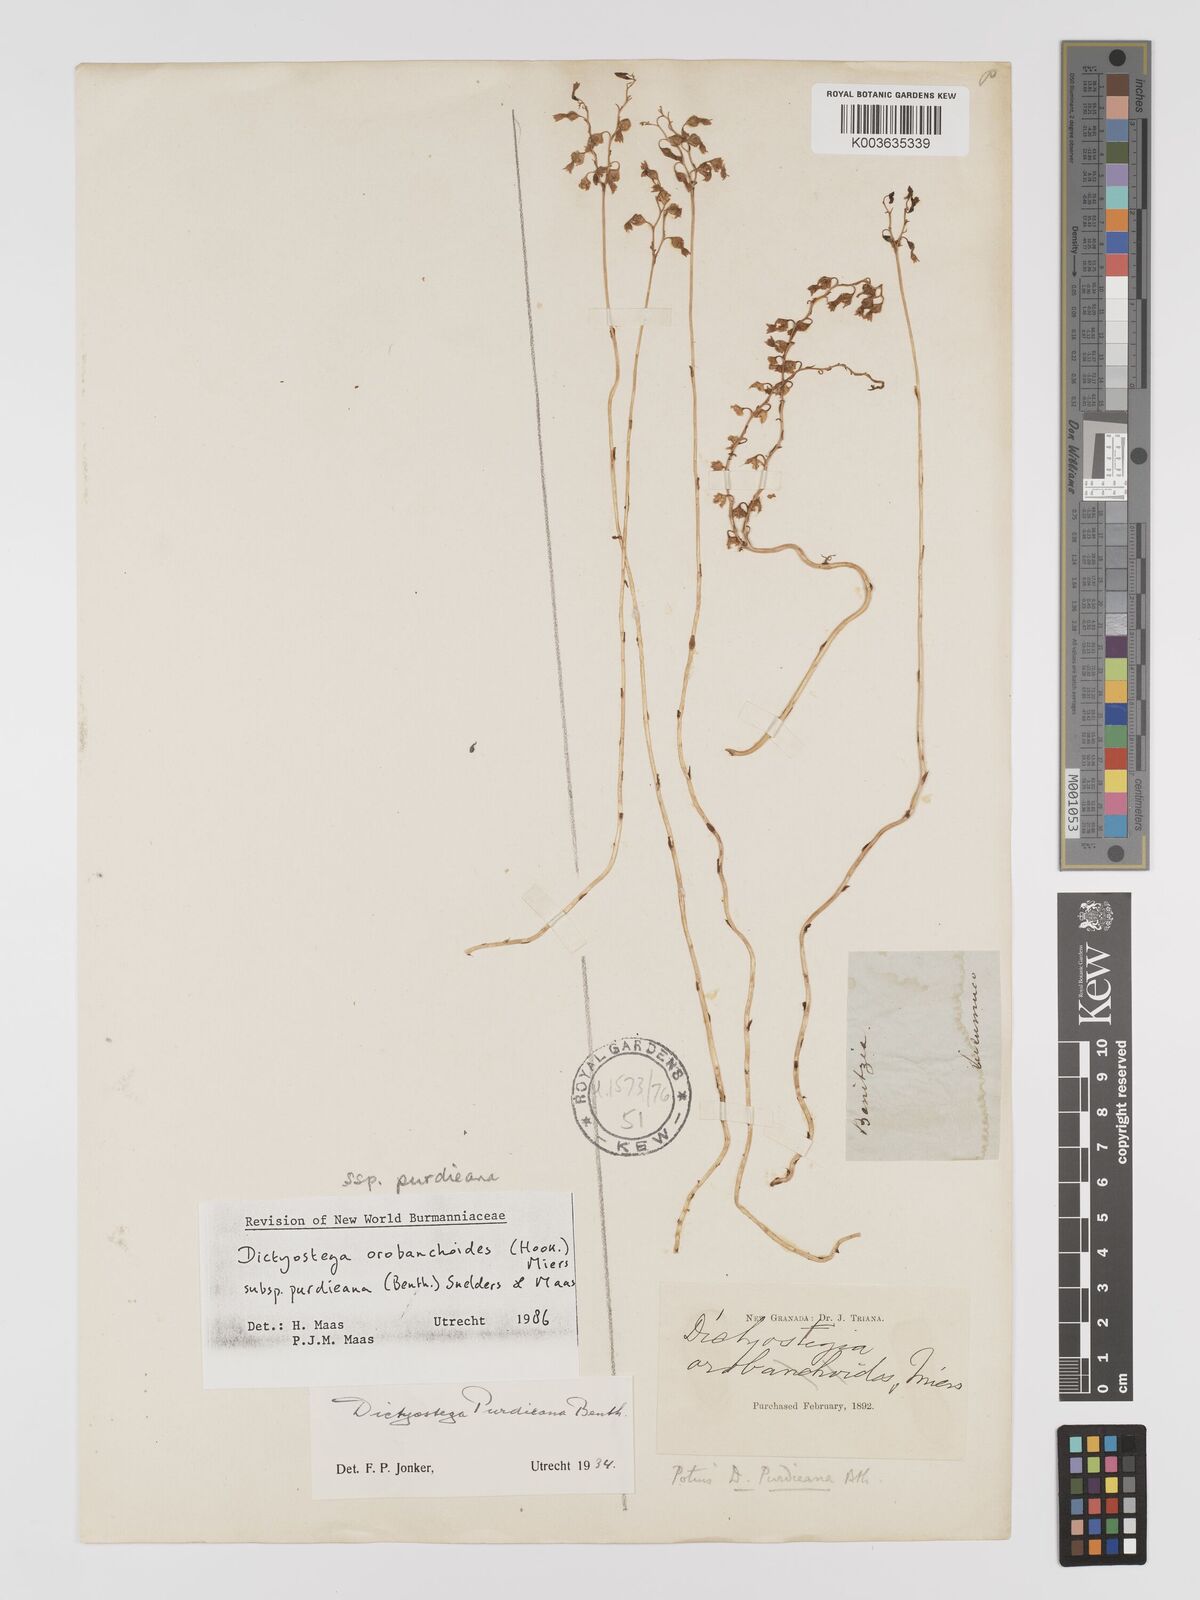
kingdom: Plantae
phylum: Tracheophyta
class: Liliopsida
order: Dioscoreales
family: Burmanniaceae
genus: Dictyostega
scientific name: Dictyostega orobanchoides
